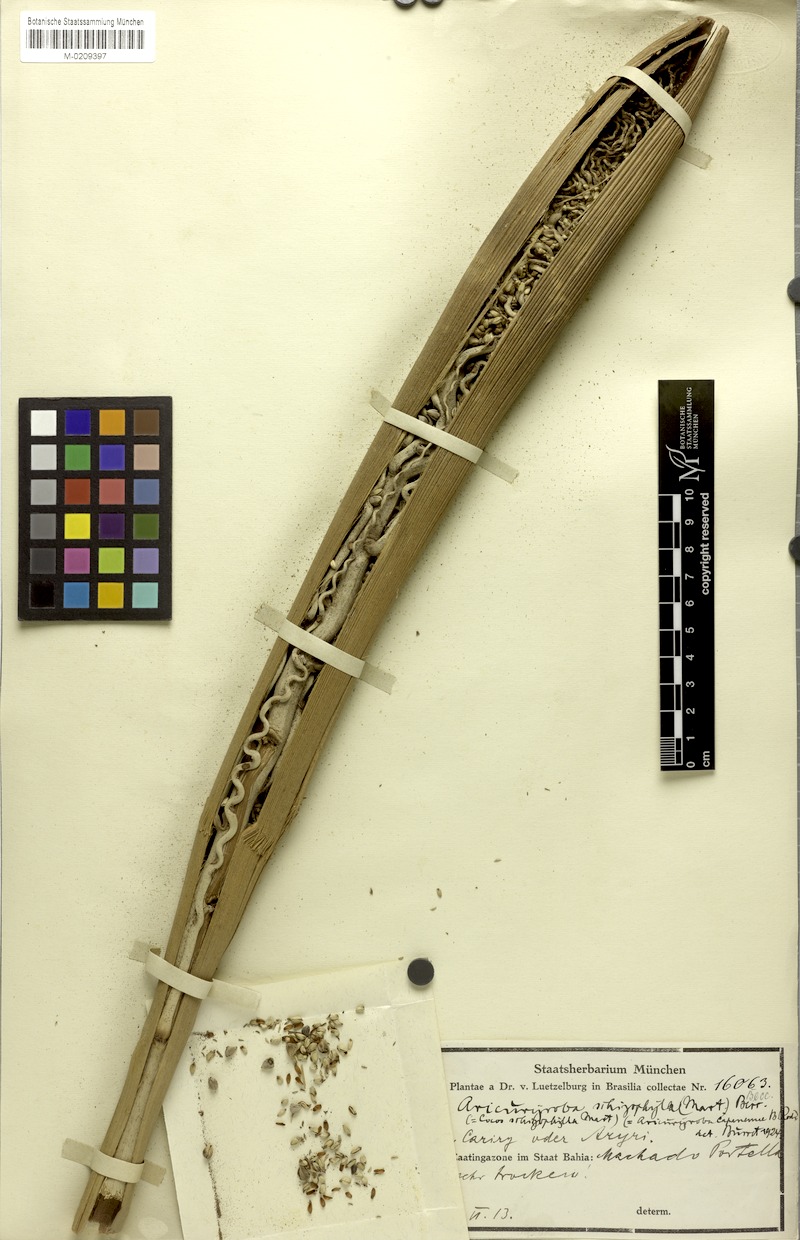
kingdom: Plantae
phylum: Tracheophyta
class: Liliopsida
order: Arecales
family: Arecaceae
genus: Syagrus
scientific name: Syagrus schizophylla
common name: Arikury palm
